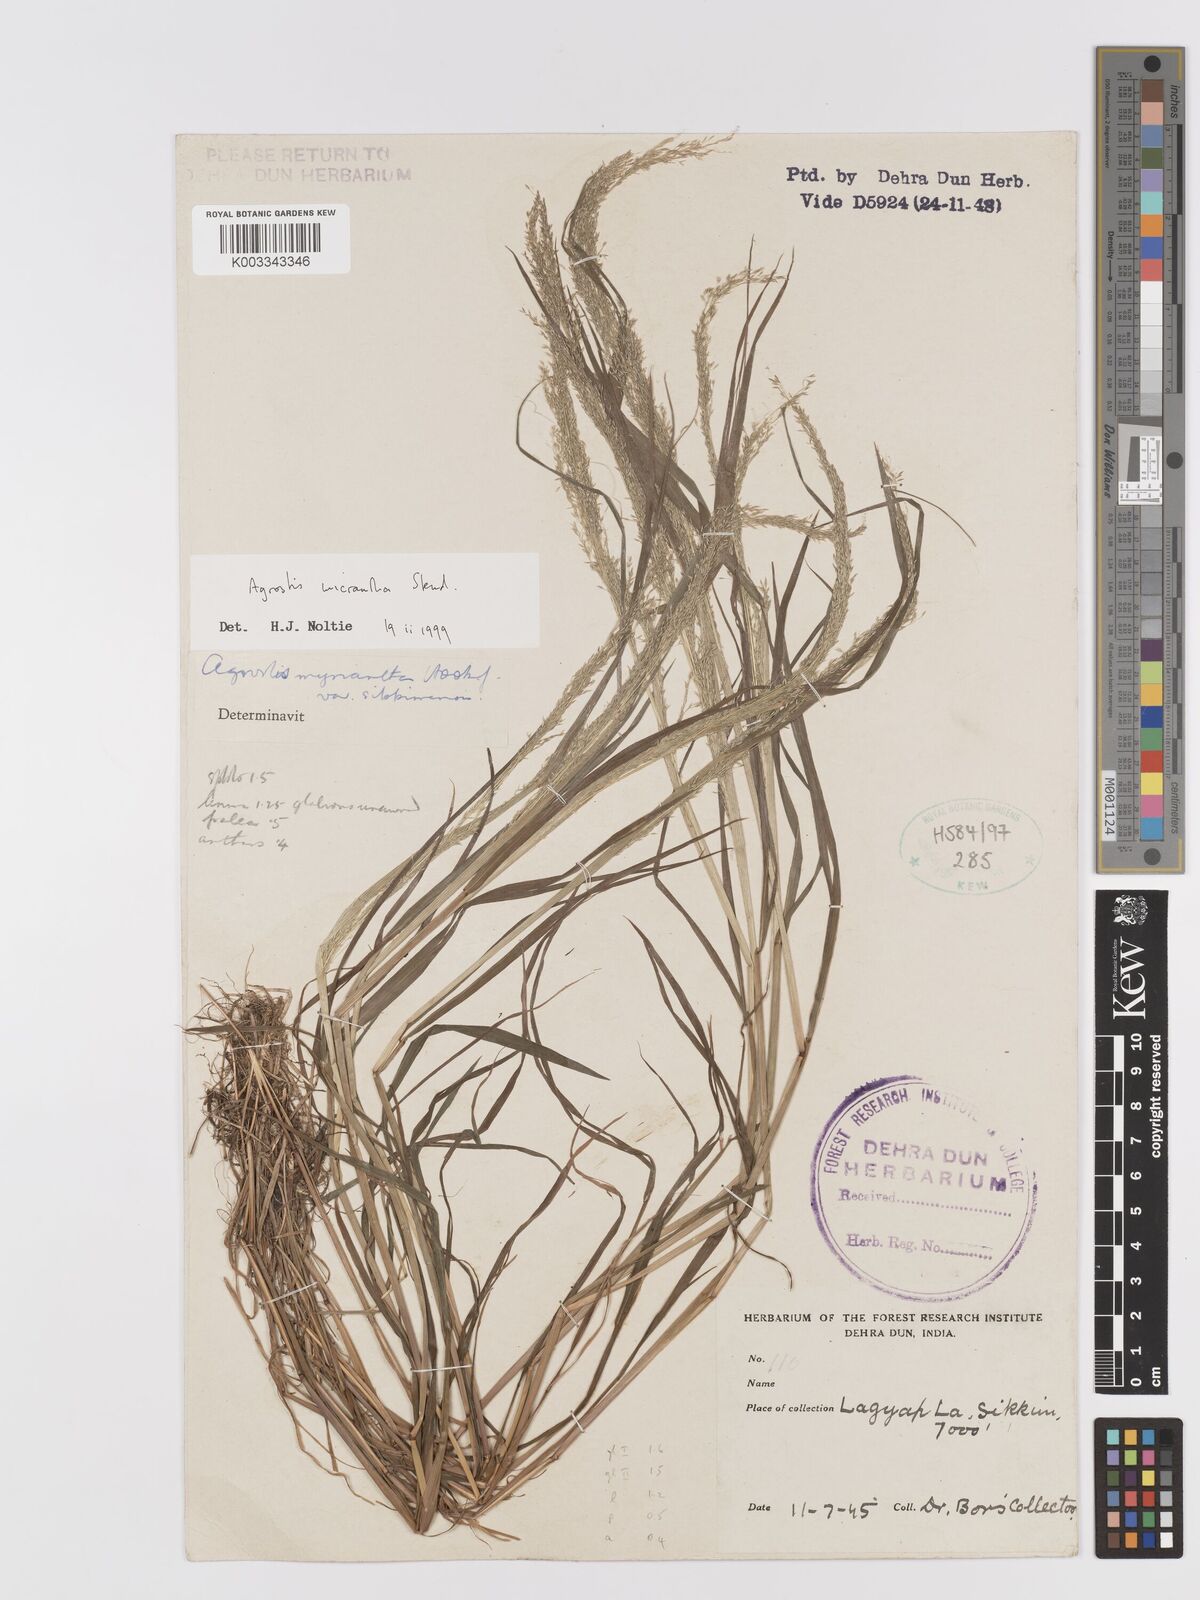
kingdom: Plantae
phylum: Tracheophyta
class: Liliopsida
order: Poales
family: Poaceae
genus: Agrostis
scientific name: Agrostis micrantha
